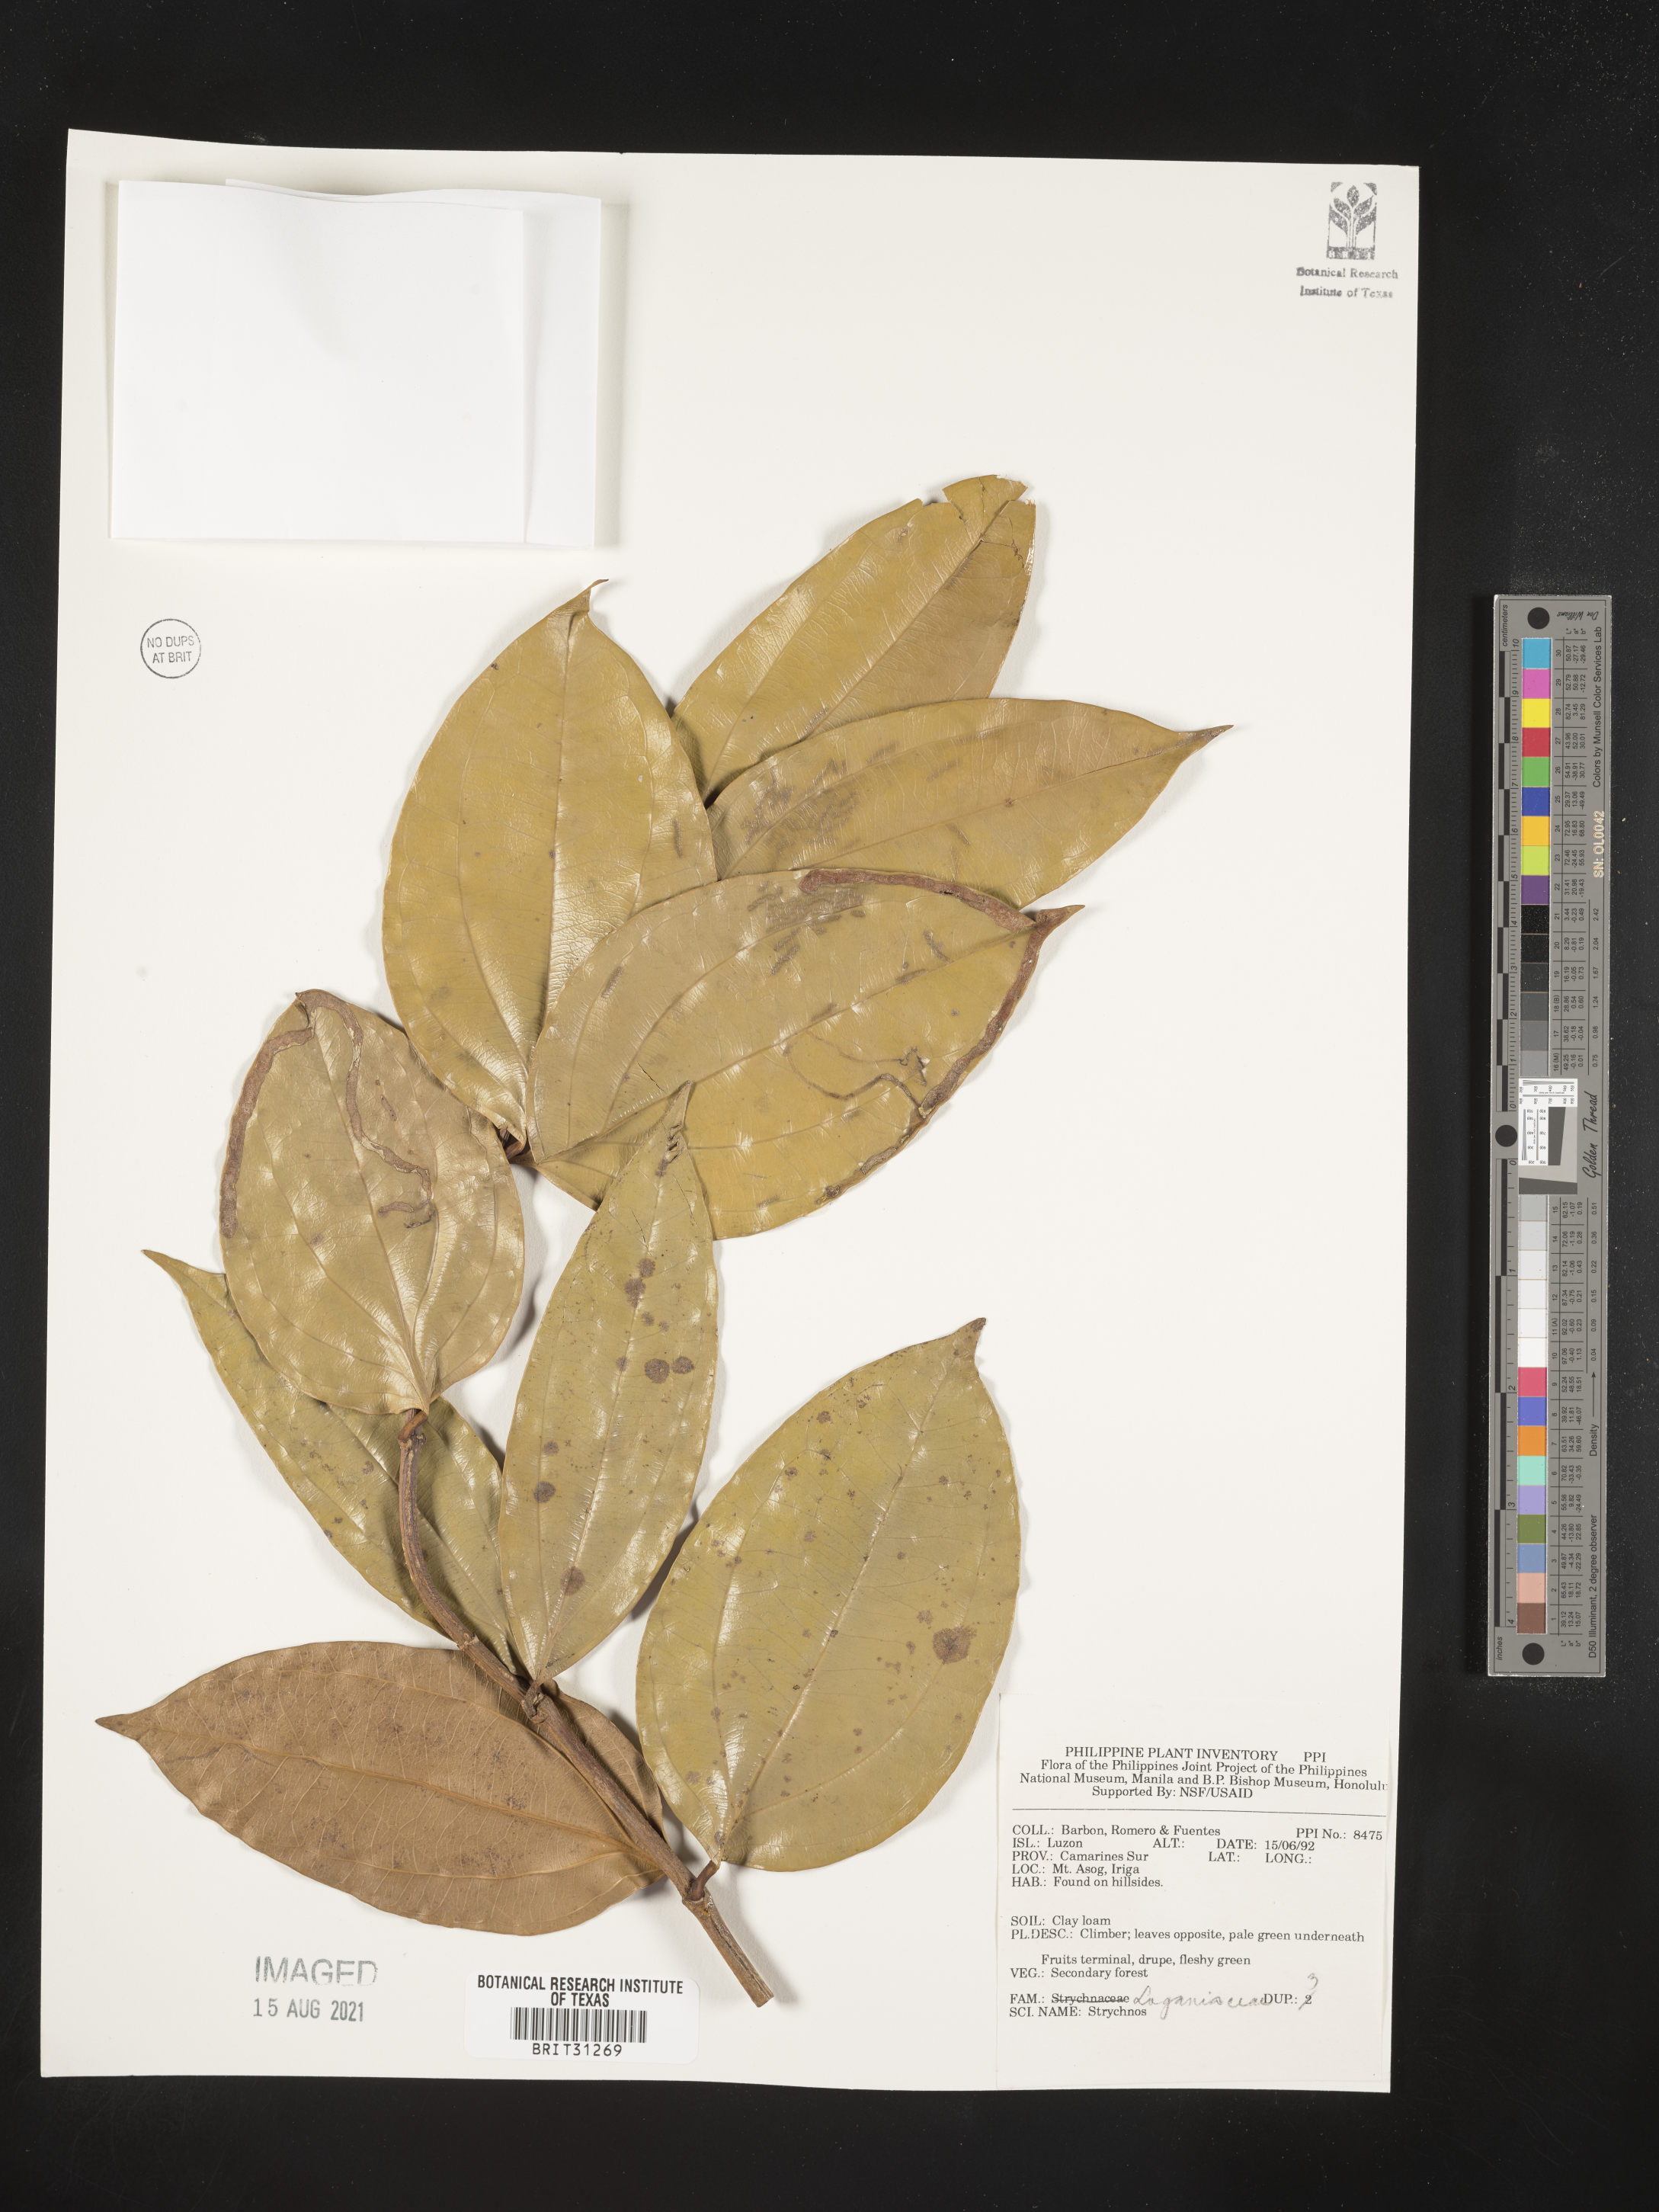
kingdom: Plantae
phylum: Tracheophyta
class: Magnoliopsida
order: Gentianales
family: Loganiaceae
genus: Strychnos
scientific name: Strychnos
